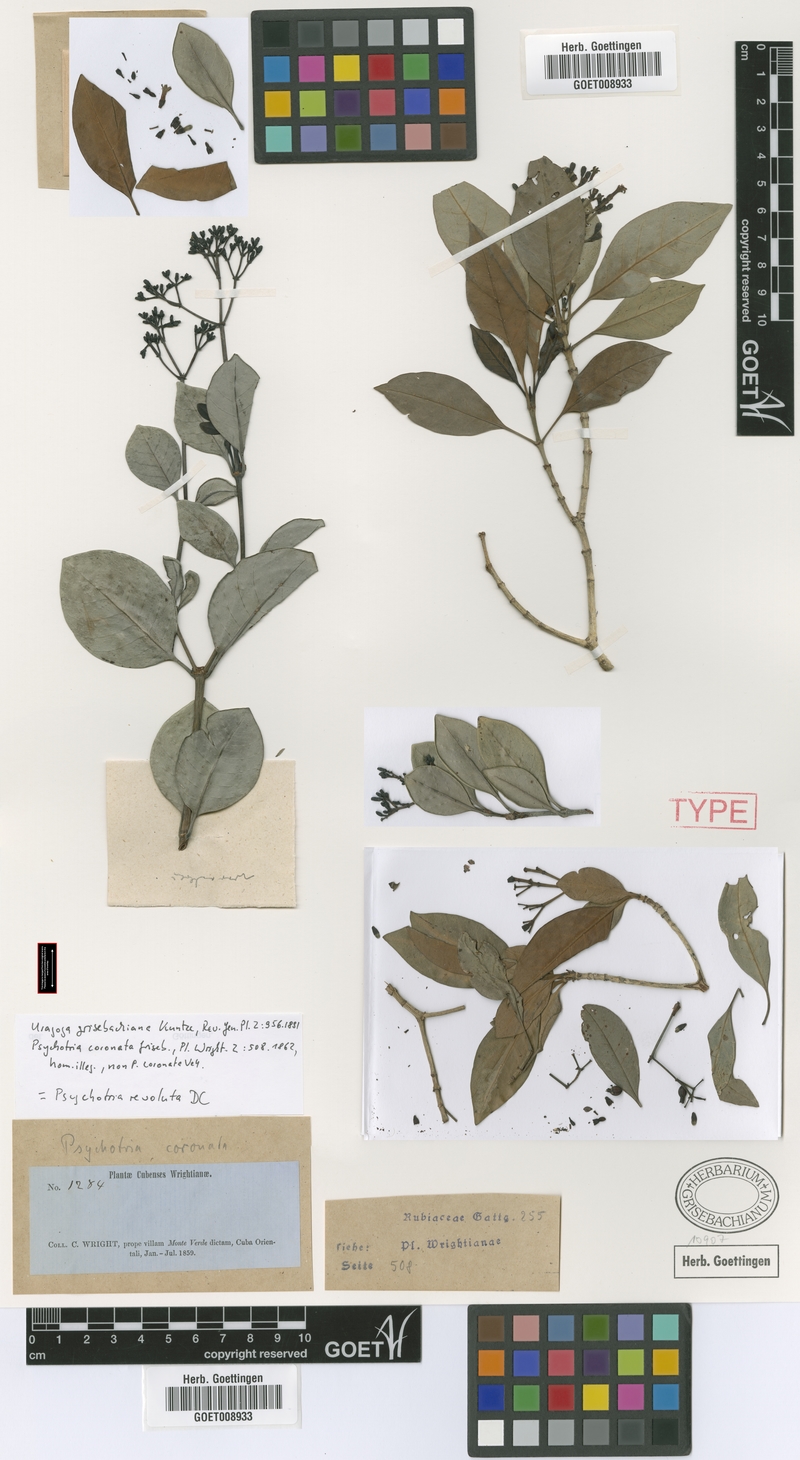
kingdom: Plantae
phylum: Tracheophyta
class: Magnoliopsida
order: Gentianales
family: Rubiaceae
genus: Psychotria
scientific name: Psychotria revoluta
